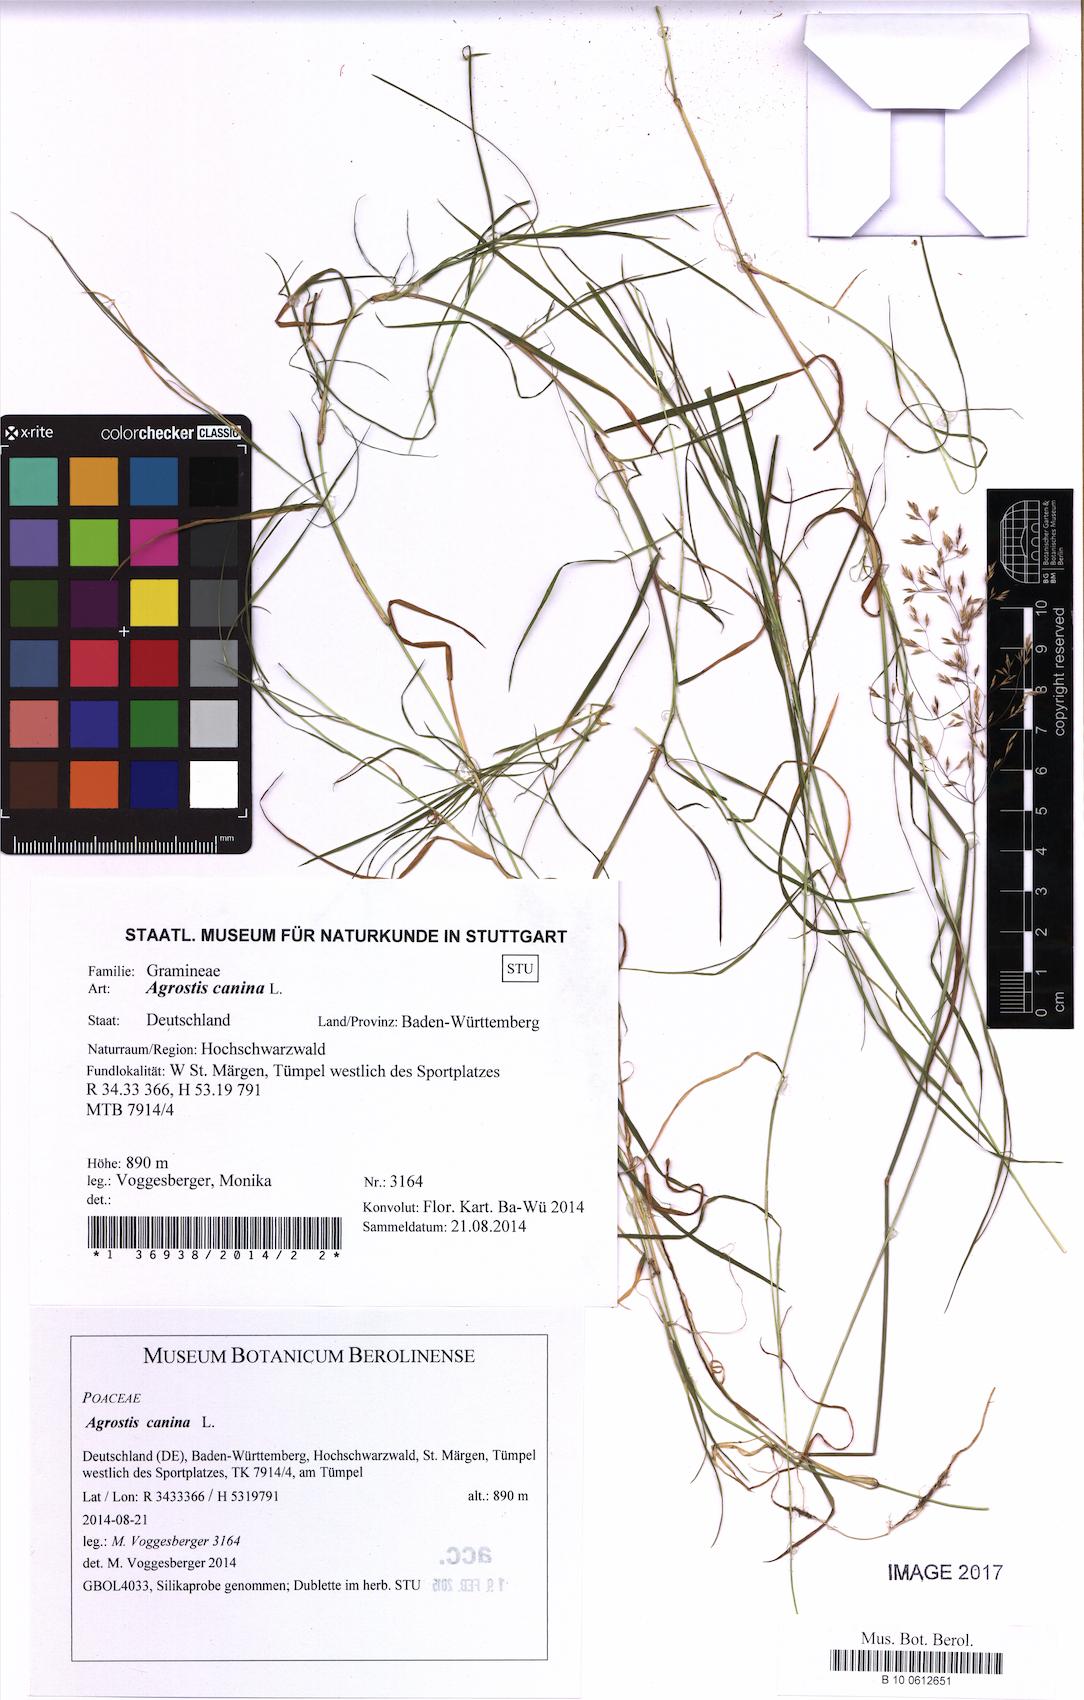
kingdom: Plantae
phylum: Tracheophyta
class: Liliopsida
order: Poales
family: Poaceae
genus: Agrostis
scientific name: Agrostis canina
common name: Velvet bent
